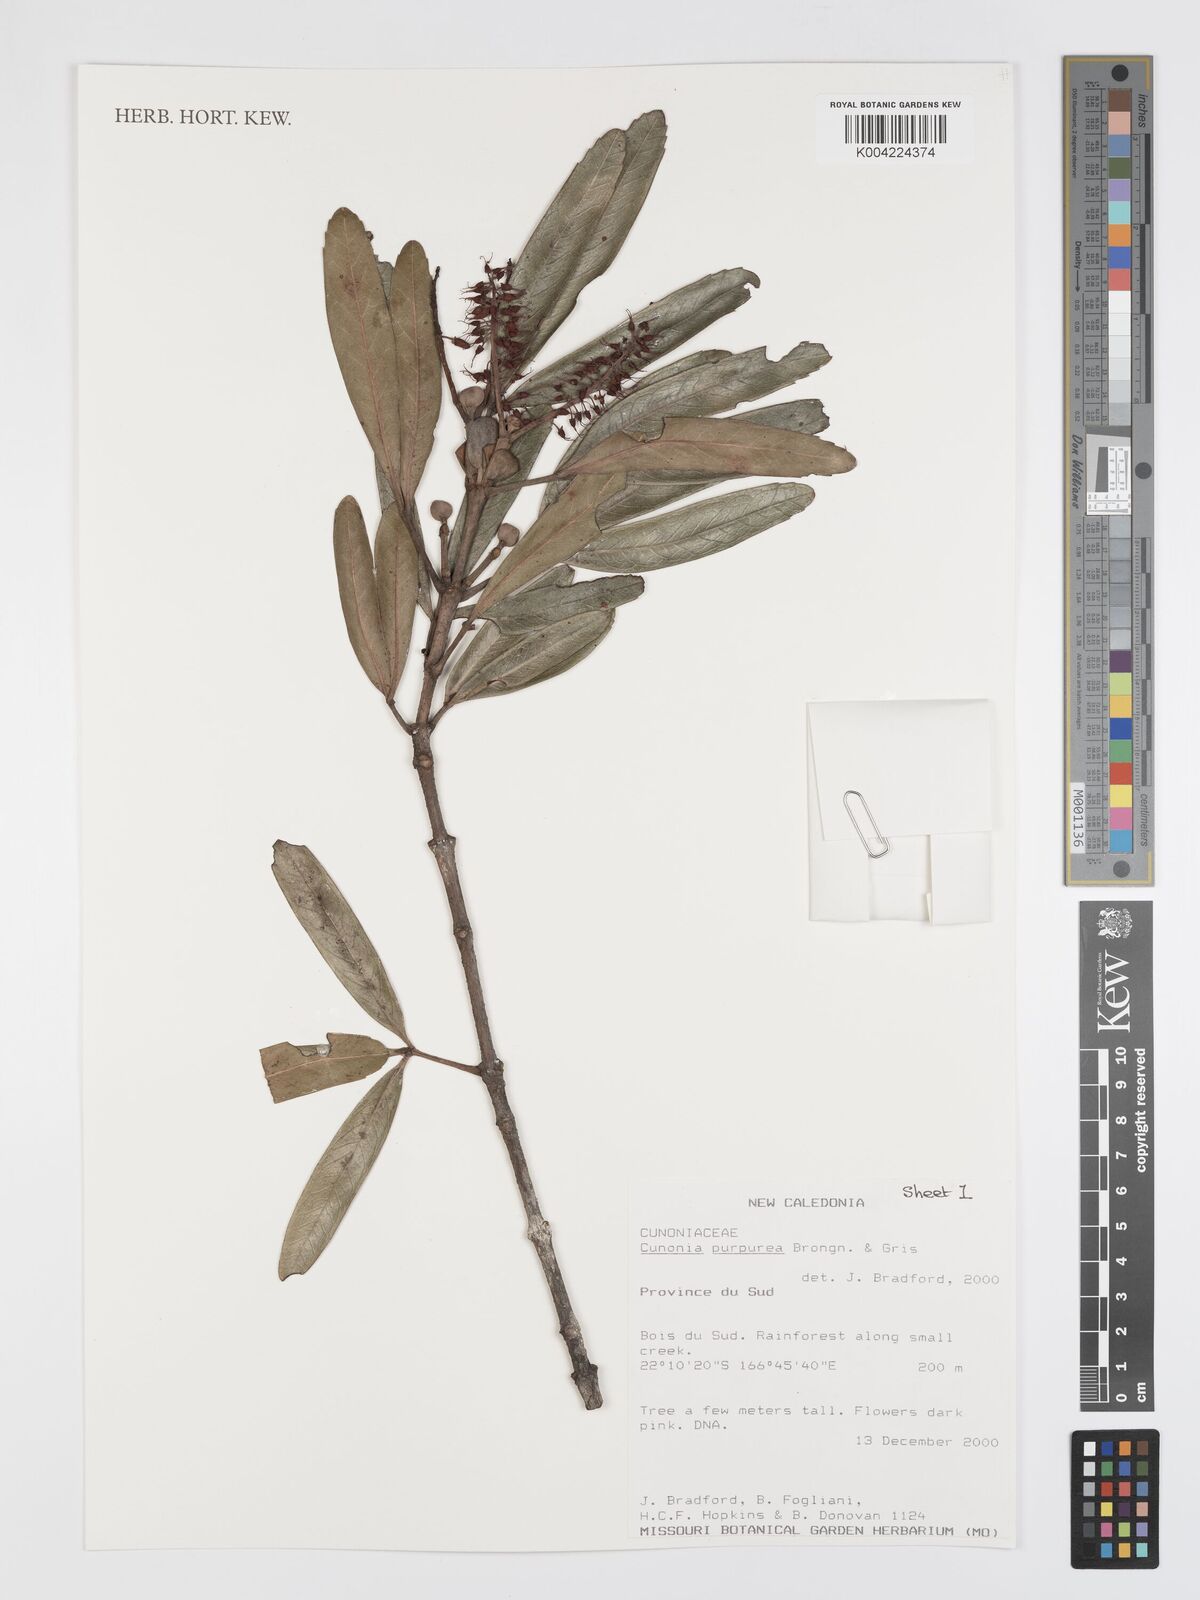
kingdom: Plantae
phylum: Tracheophyta
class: Magnoliopsida
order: Oxalidales
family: Cunoniaceae
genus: Cunonia
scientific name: Cunonia purpurea
